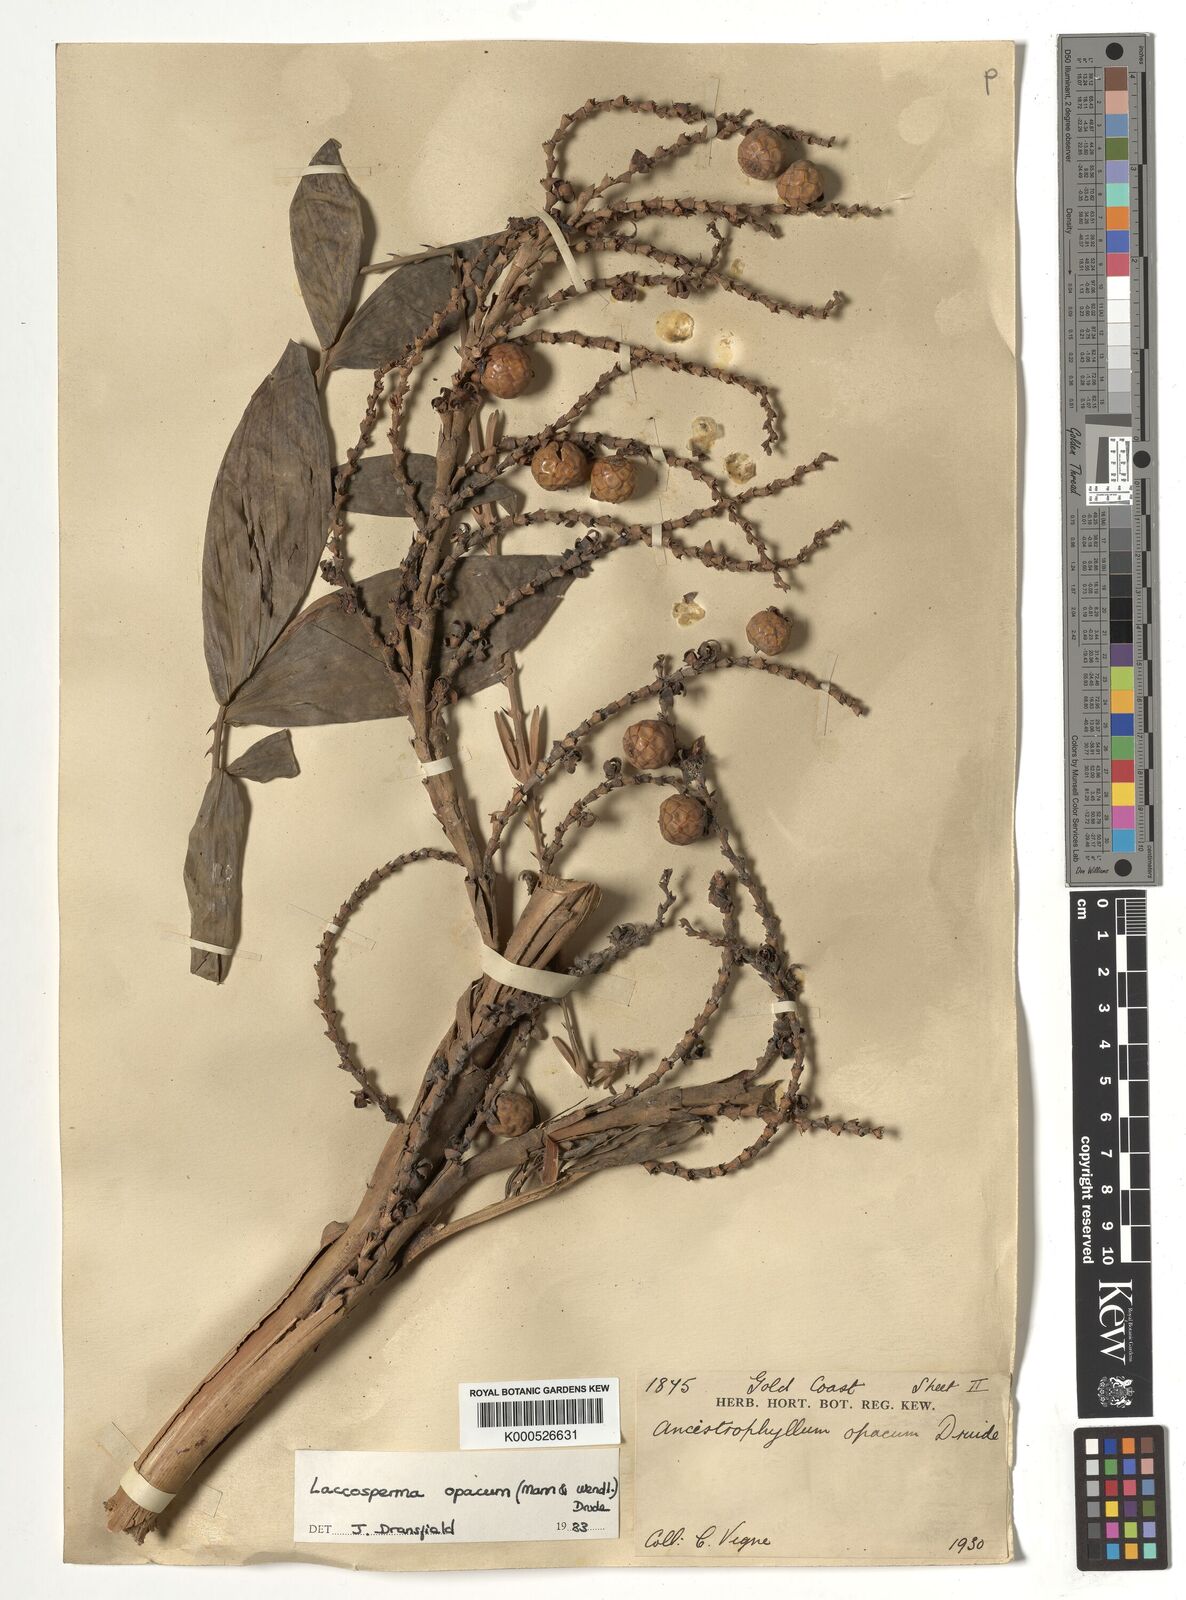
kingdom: Plantae
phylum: Tracheophyta
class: Liliopsida
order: Arecales
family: Arecaceae
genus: Laccosperma
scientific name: Laccosperma opacum
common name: Rattan
